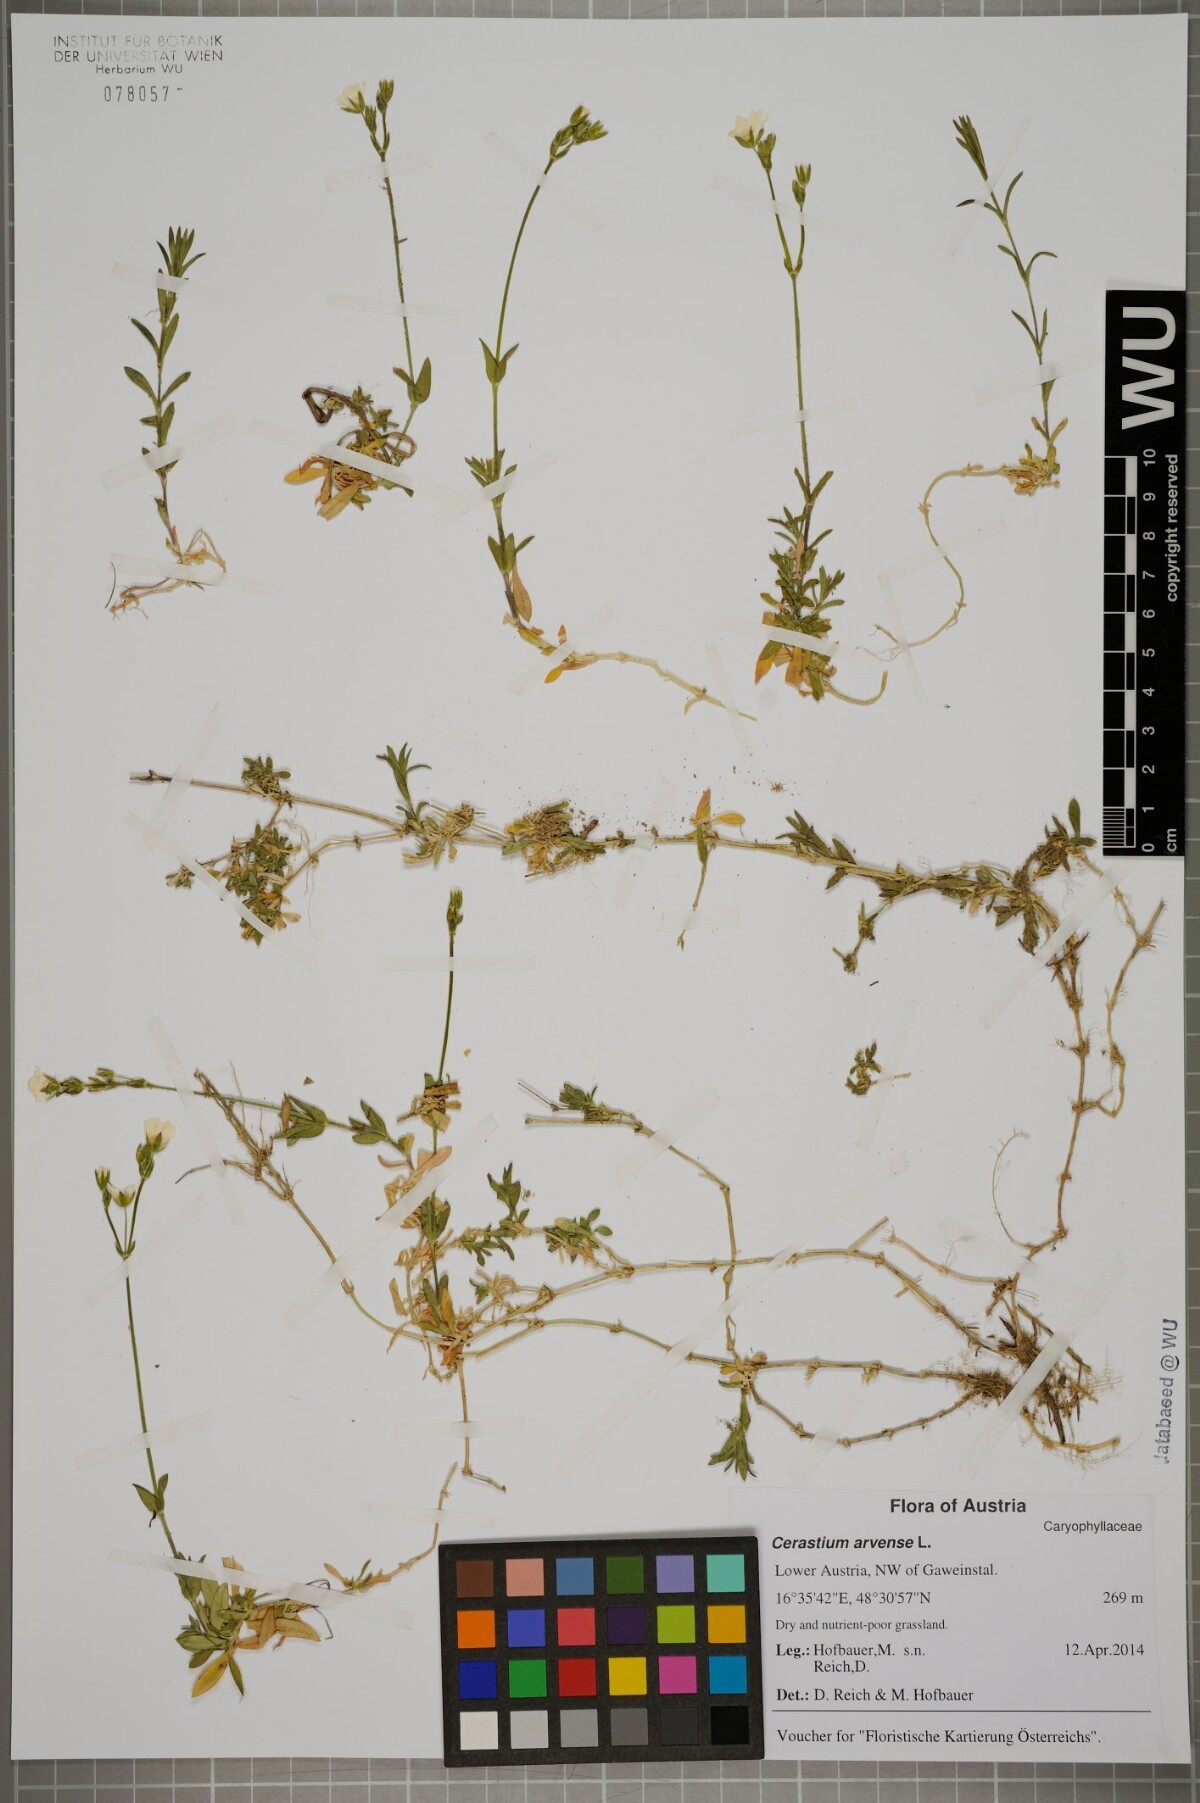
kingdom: Plantae
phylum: Tracheophyta
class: Magnoliopsida
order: Caryophyllales
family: Caryophyllaceae
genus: Cerastium
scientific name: Cerastium arvense
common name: Field mouse-ear
